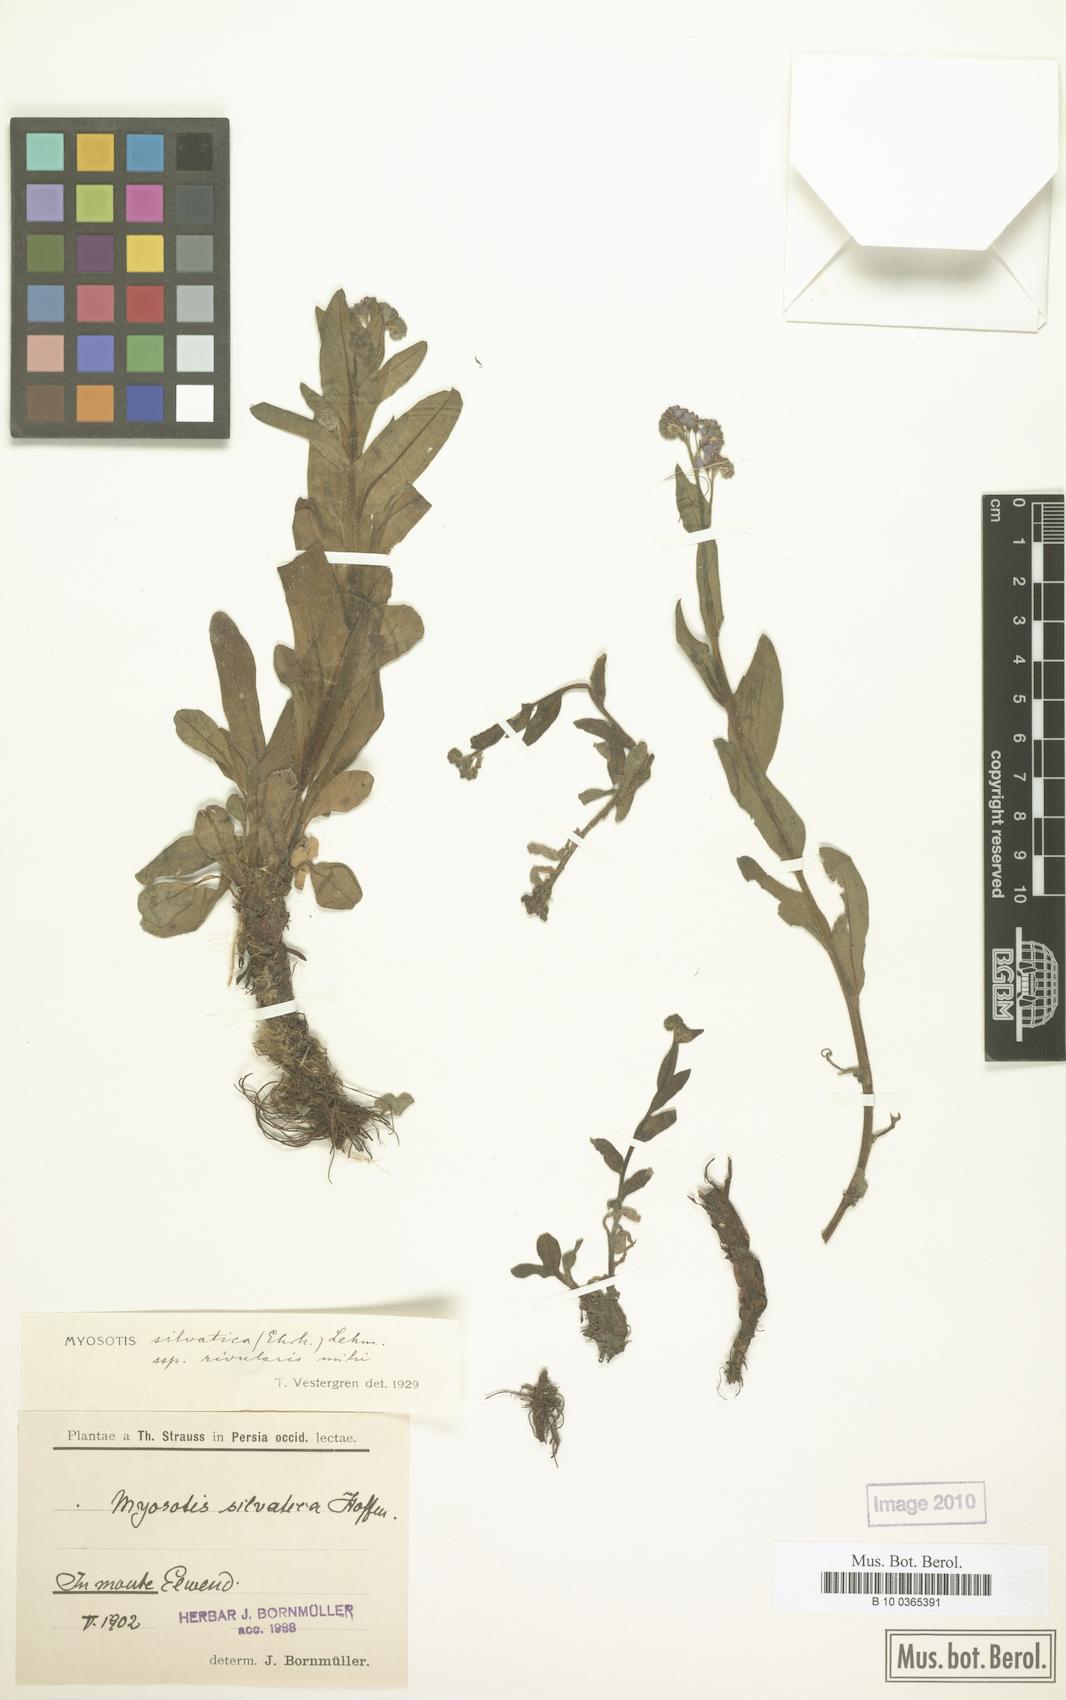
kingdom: Plantae
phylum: Tracheophyta
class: Magnoliopsida
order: Boraginales
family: Boraginaceae
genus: Myosotis
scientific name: Myosotis rivularis
